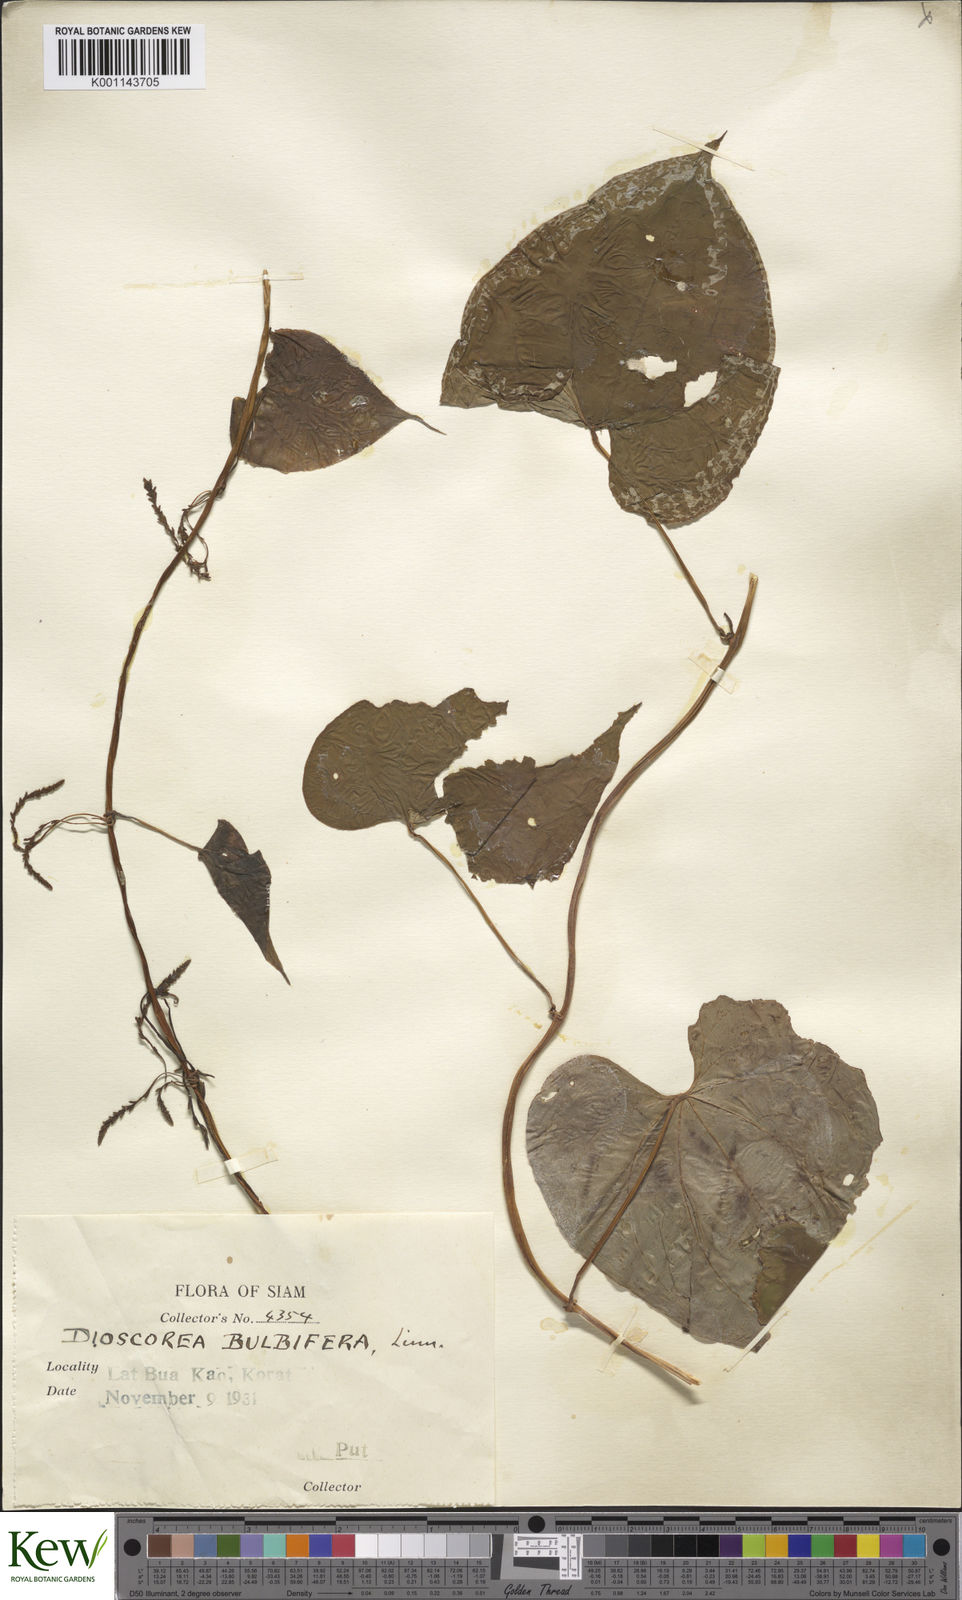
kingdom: Plantae
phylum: Tracheophyta
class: Liliopsida
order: Dioscoreales
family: Dioscoreaceae
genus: Dioscorea
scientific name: Dioscorea bulbifera
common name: Air yam
